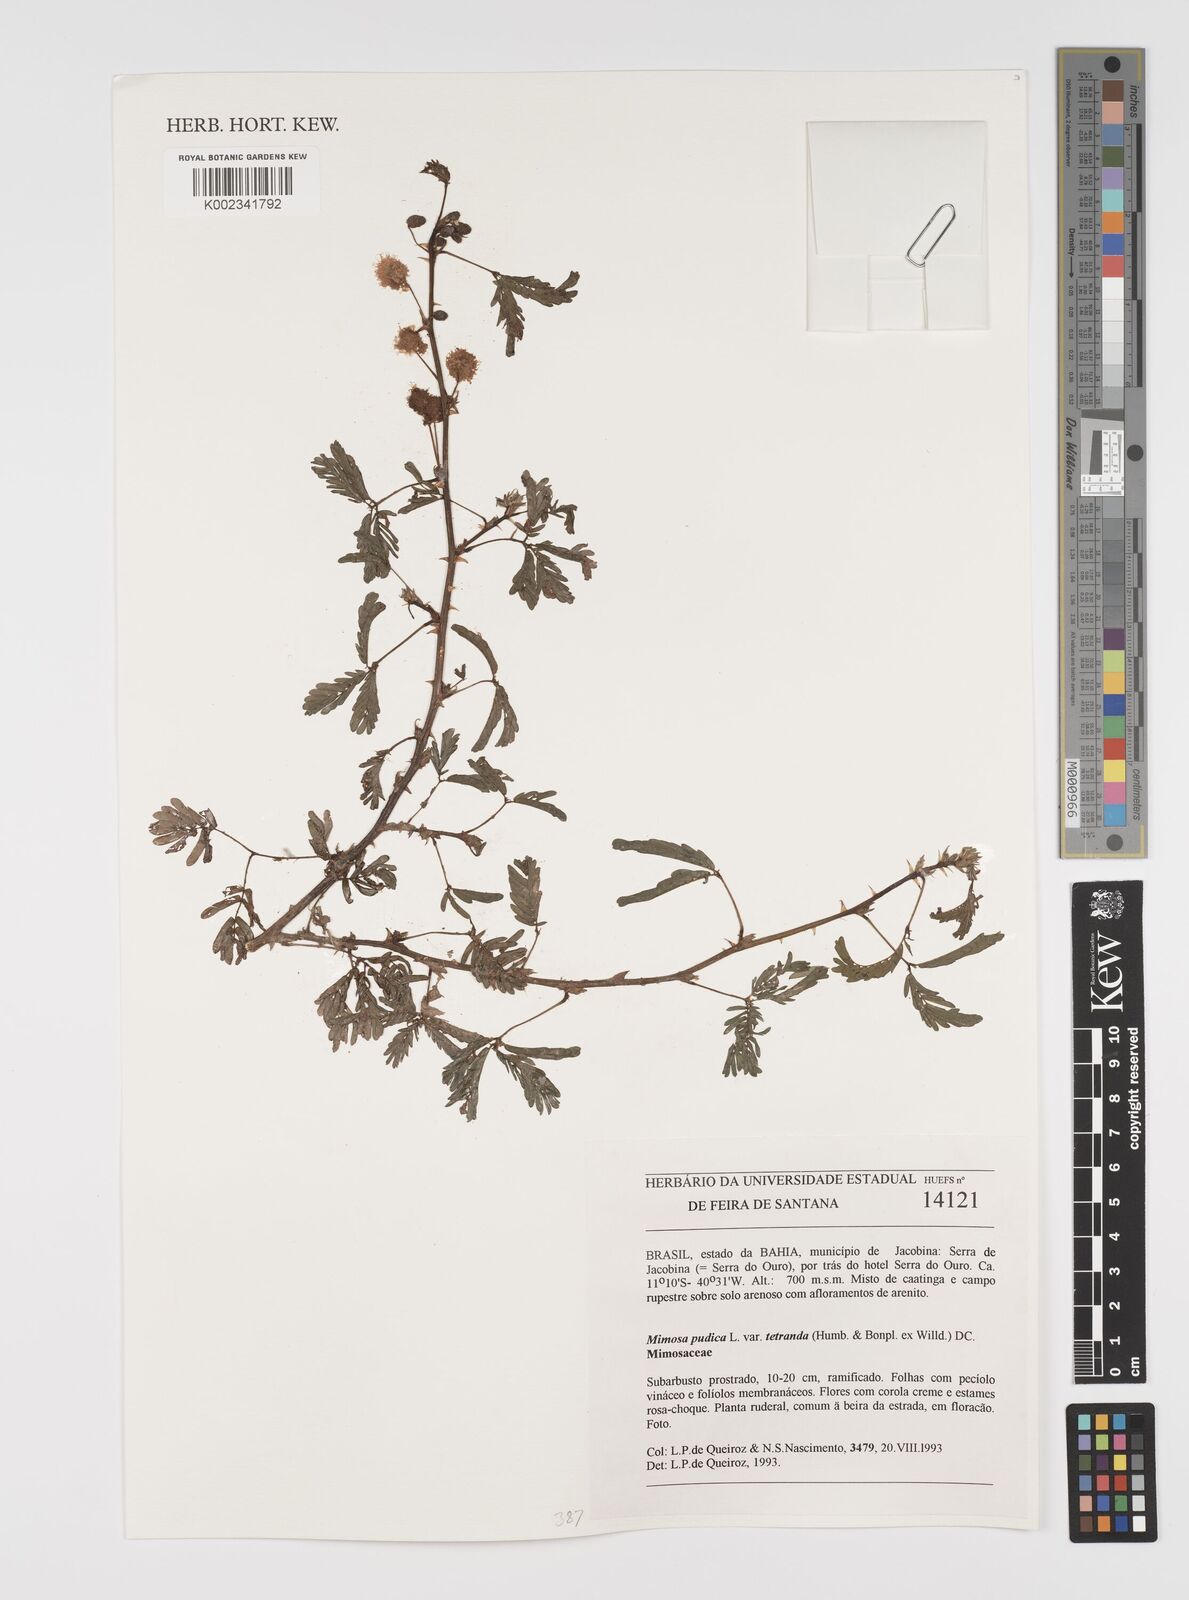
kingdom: Plantae
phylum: Tracheophyta
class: Magnoliopsida
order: Fabales
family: Fabaceae
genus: Mimosa
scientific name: Mimosa pudica
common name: Sensitive plant
